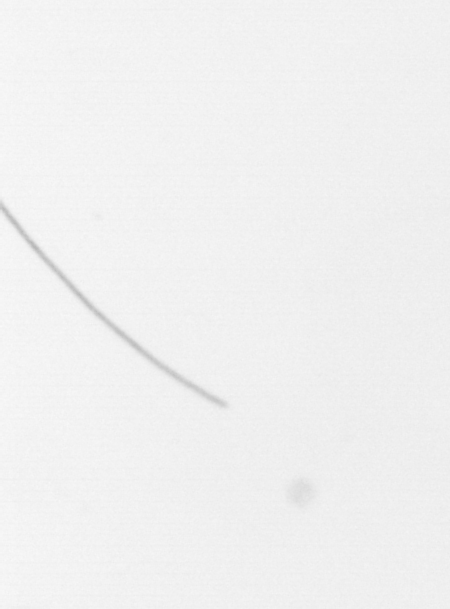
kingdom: Chromista
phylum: Ochrophyta
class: Bacillariophyceae
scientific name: Bacillariophyceae
